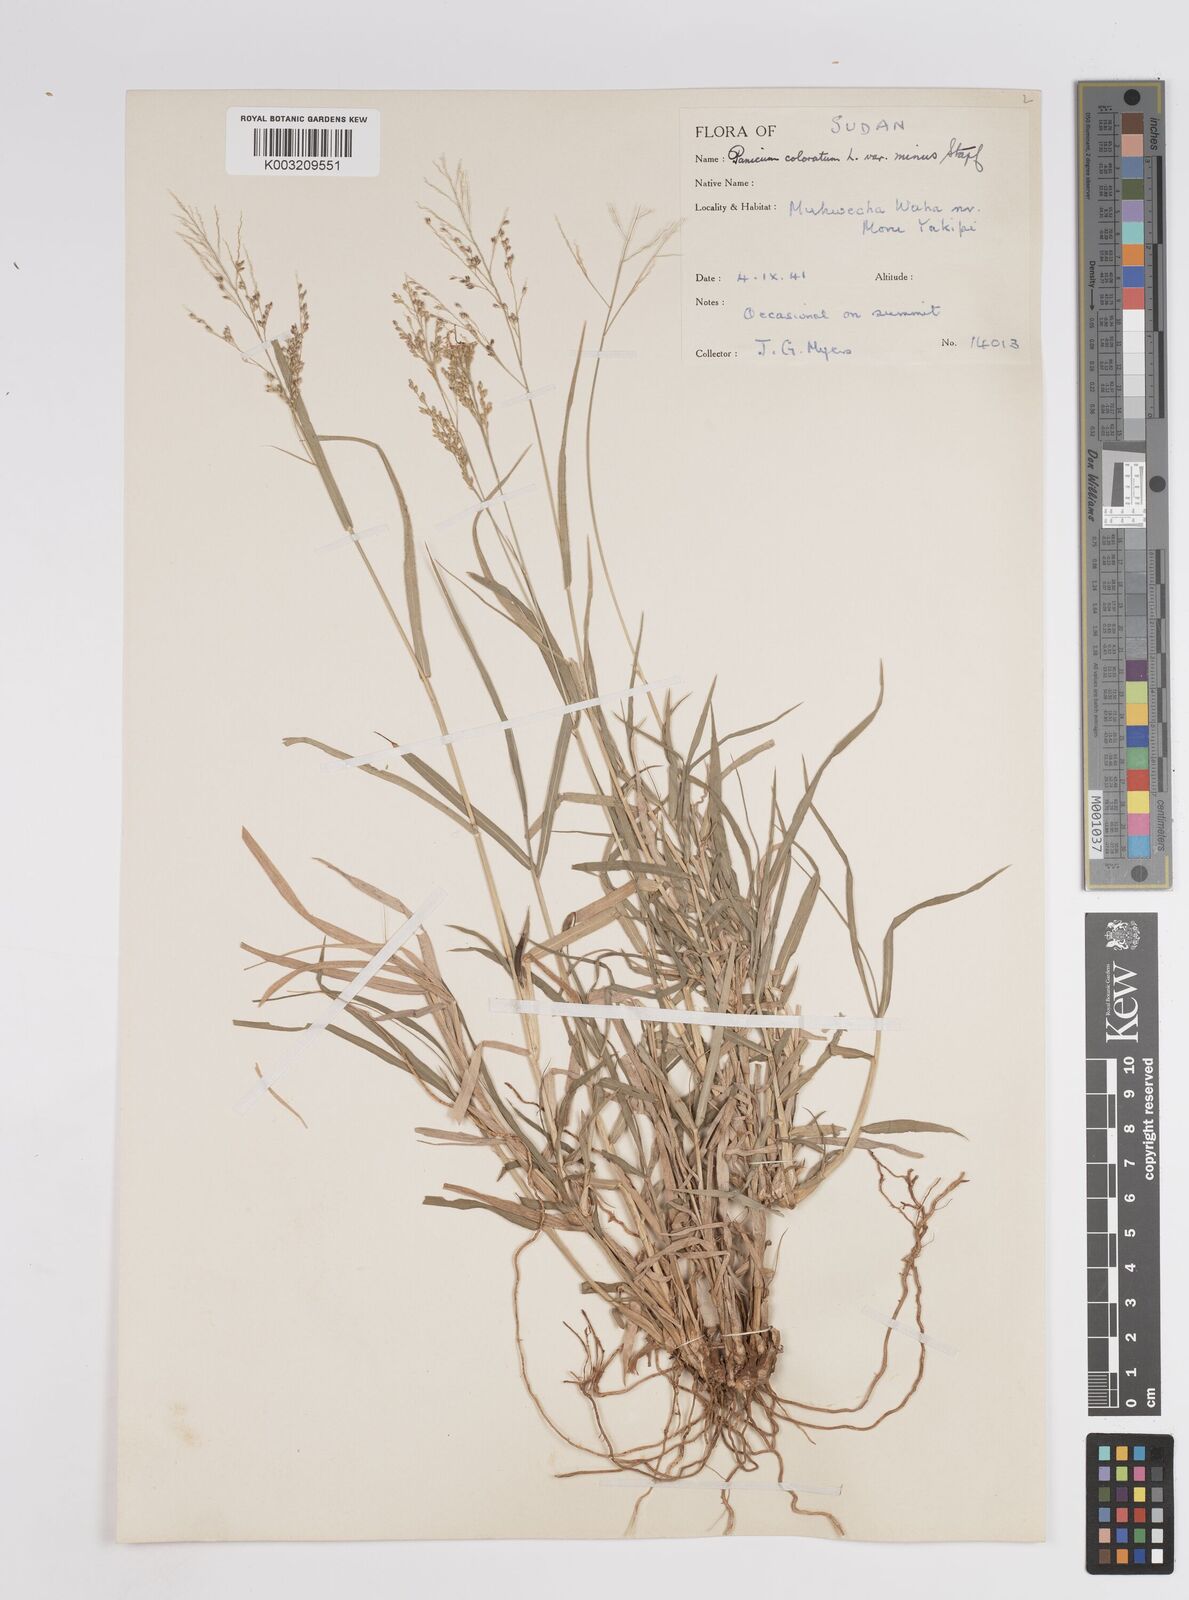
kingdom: Plantae
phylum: Tracheophyta
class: Liliopsida
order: Poales
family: Poaceae
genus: Panicum
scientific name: Panicum coloratum
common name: Kleingrass
